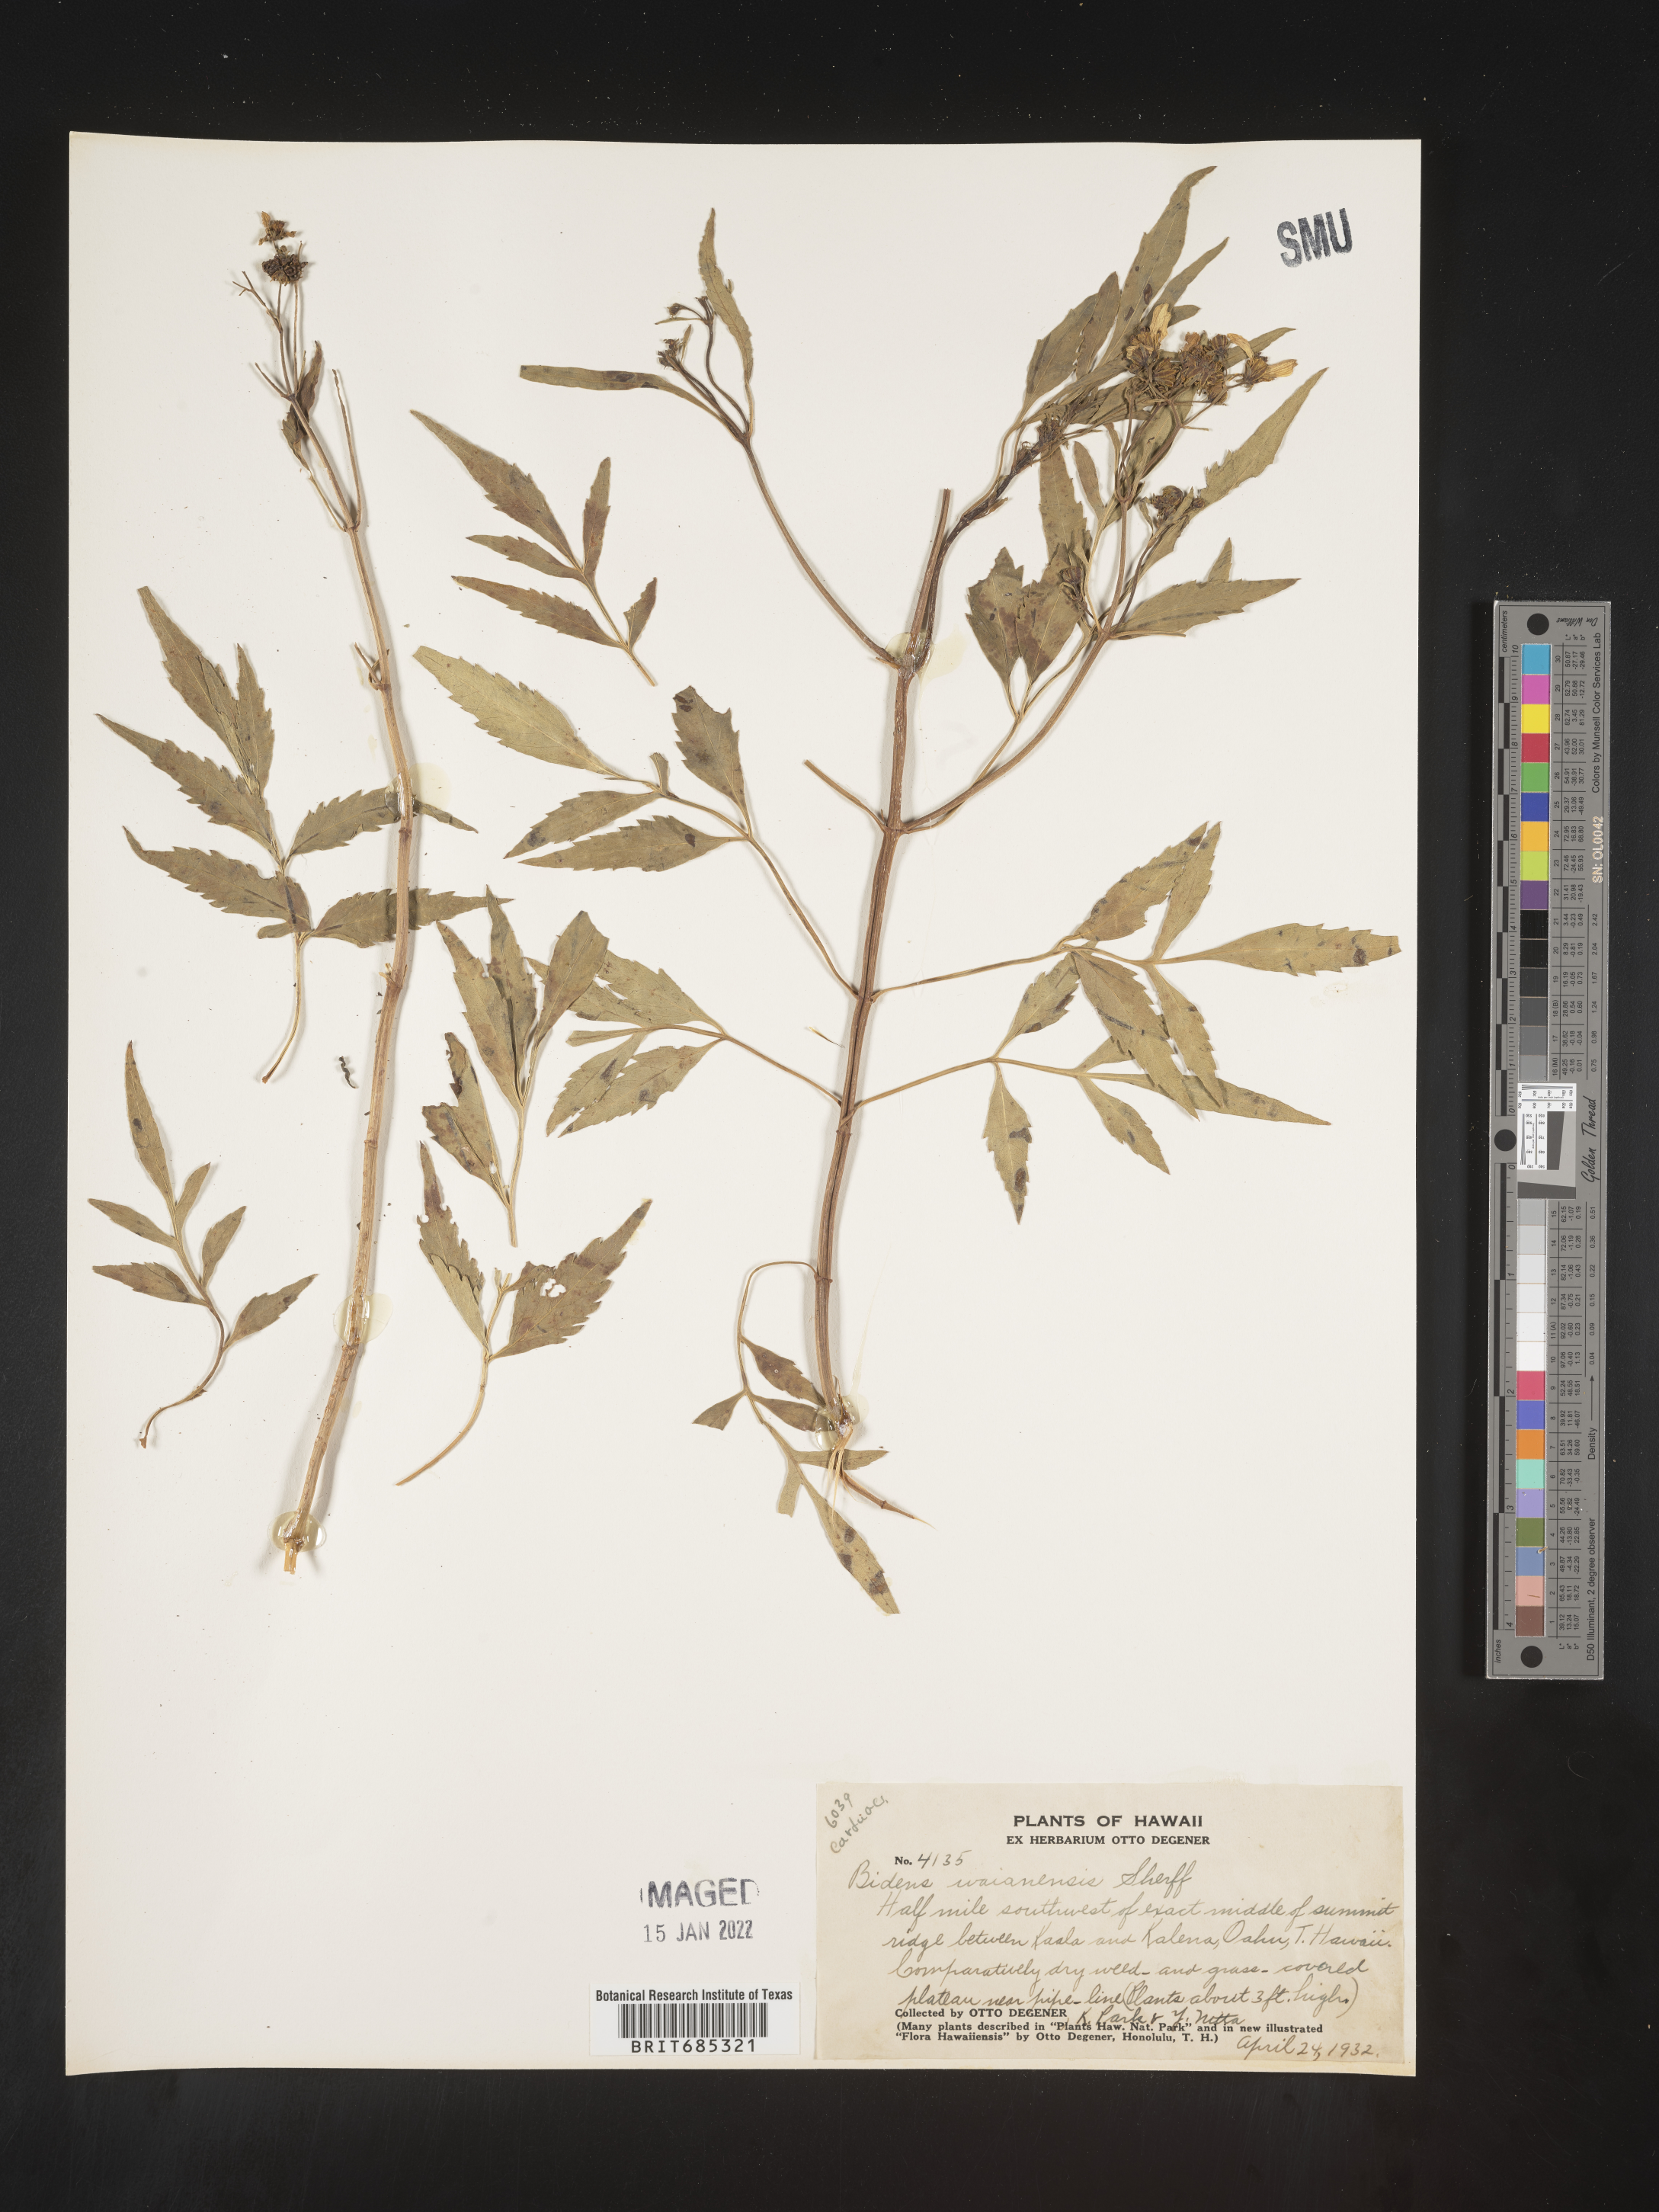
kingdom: Plantae
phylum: Tracheophyta
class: Magnoliopsida
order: Asterales
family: Asteraceae
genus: Bidens
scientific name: Bidens
